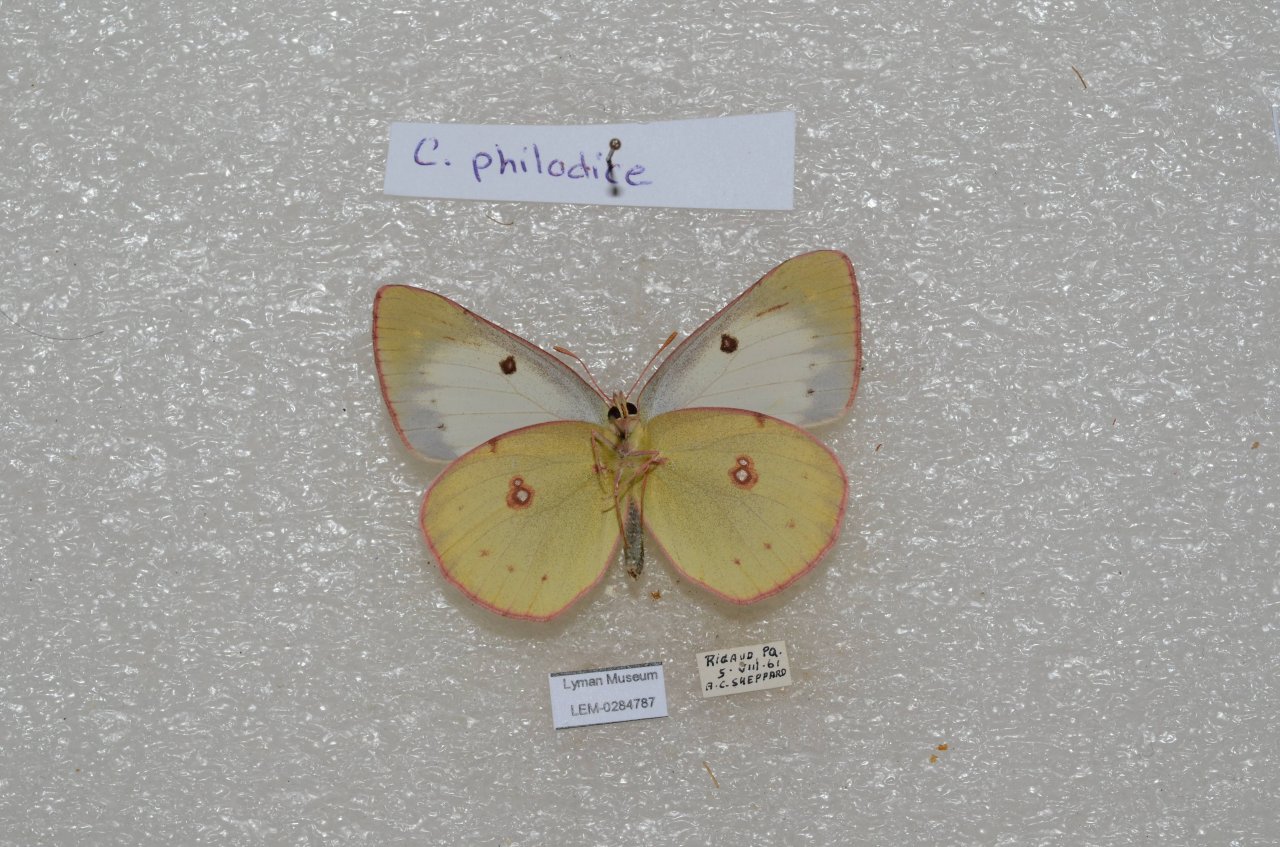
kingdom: Animalia
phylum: Arthropoda
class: Insecta
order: Lepidoptera
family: Pieridae
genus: Colias
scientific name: Colias philodice
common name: Clouded Sulphur
